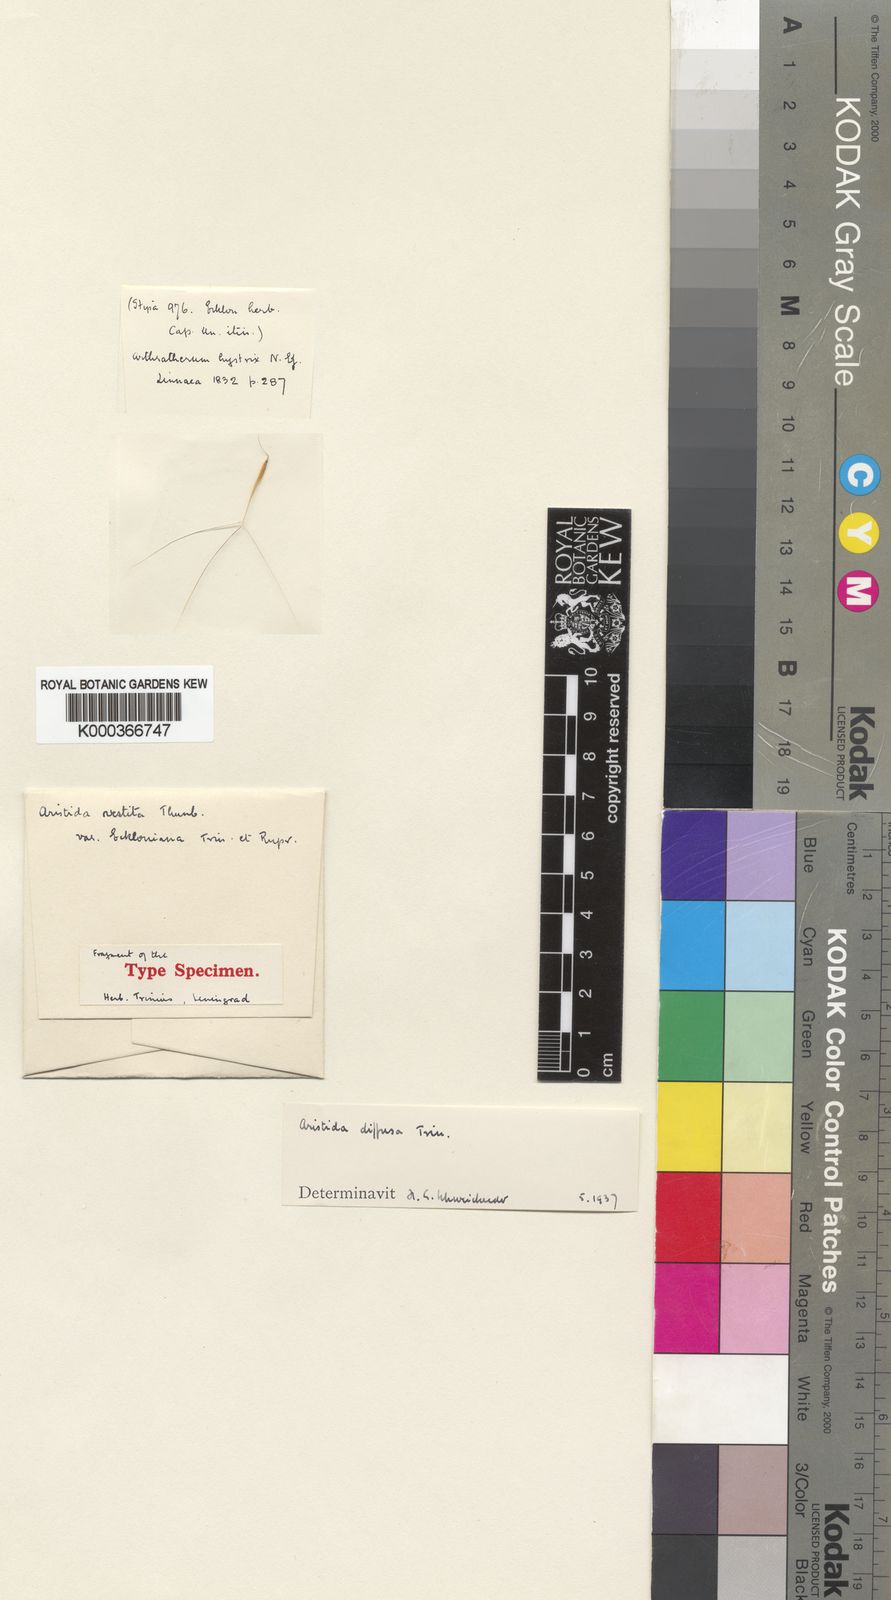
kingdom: Plantae
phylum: Tracheophyta
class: Liliopsida
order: Poales
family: Poaceae
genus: Aristida
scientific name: Aristida diffusa
